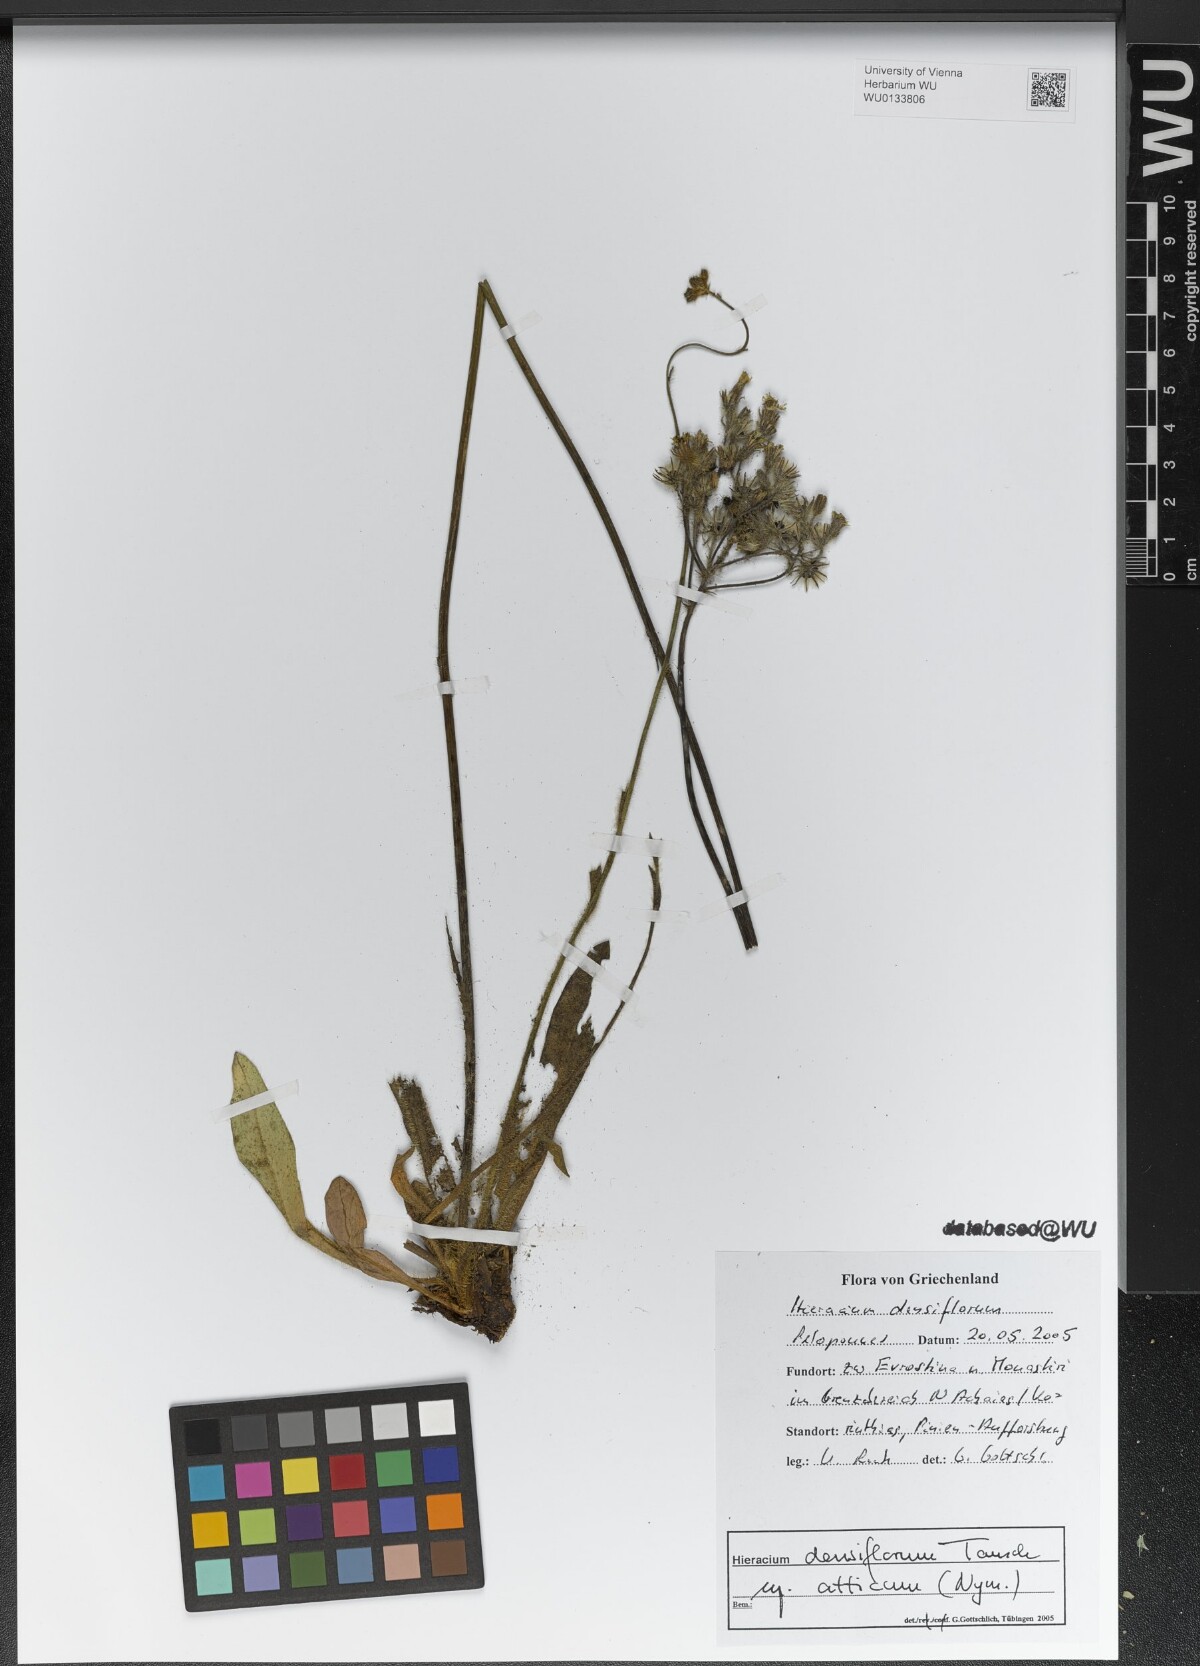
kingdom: Plantae
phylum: Tracheophyta
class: Magnoliopsida
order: Asterales
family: Asteraceae
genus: Pilosella
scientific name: Pilosella densiflora
